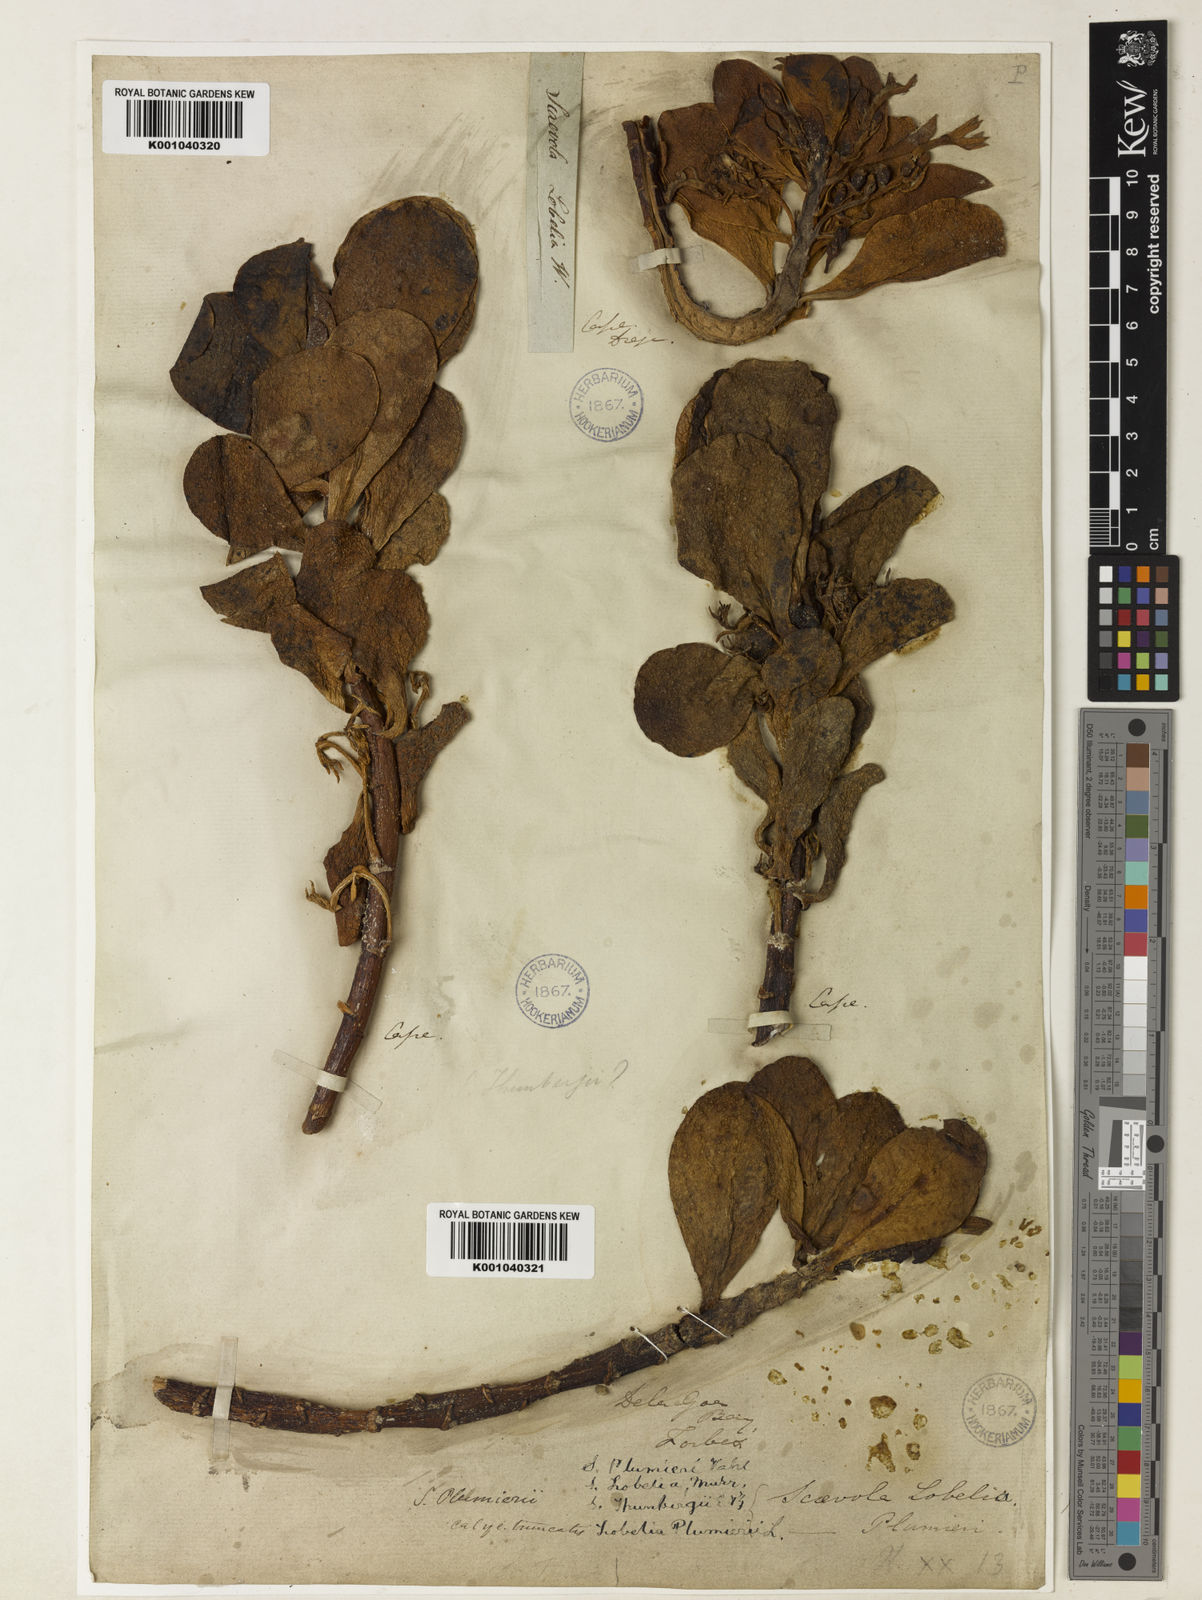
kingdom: Plantae
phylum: Tracheophyta
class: Magnoliopsida
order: Asterales
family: Goodeniaceae
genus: Scaevola
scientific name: Scaevola plumieri
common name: Gull feed
